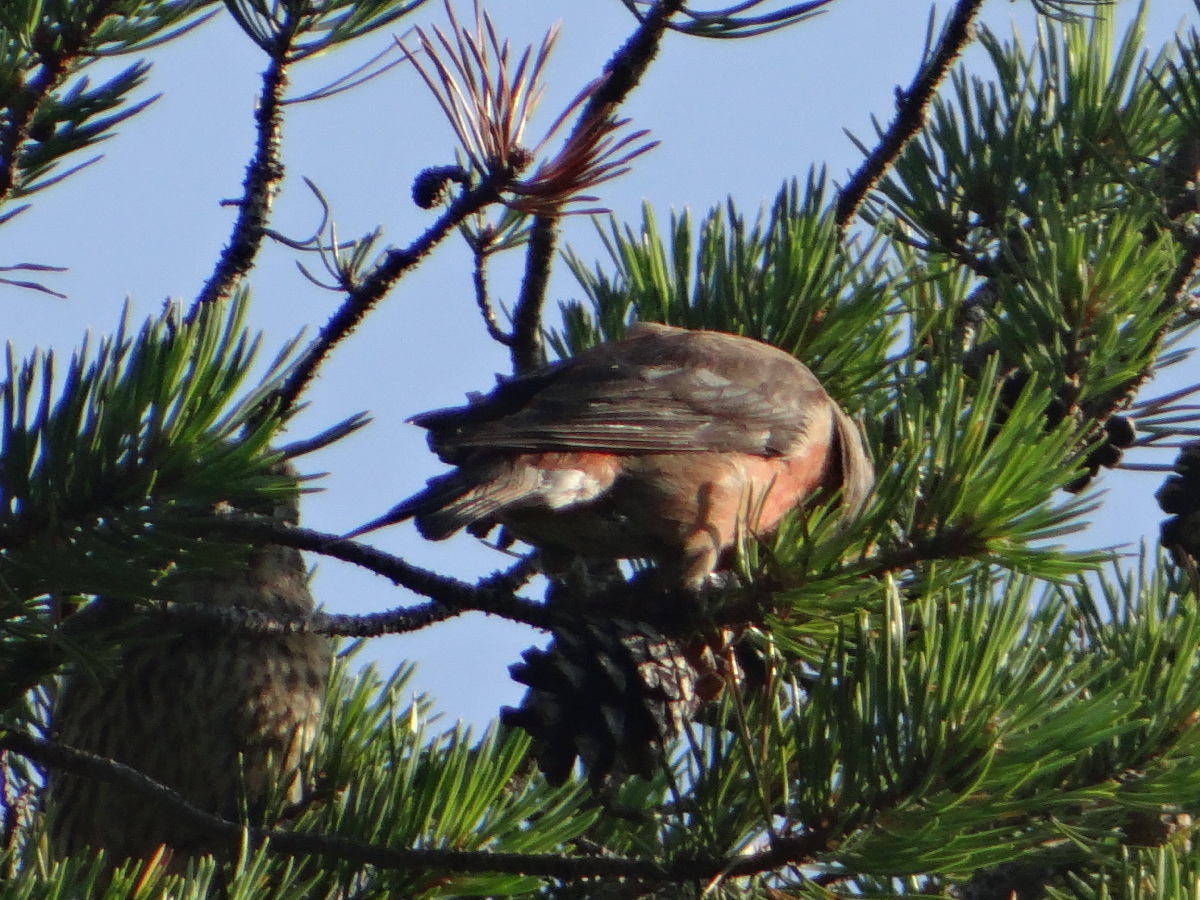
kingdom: Animalia
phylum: Chordata
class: Aves
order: Passeriformes
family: Fringillidae
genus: Loxia
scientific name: Loxia curvirostra
